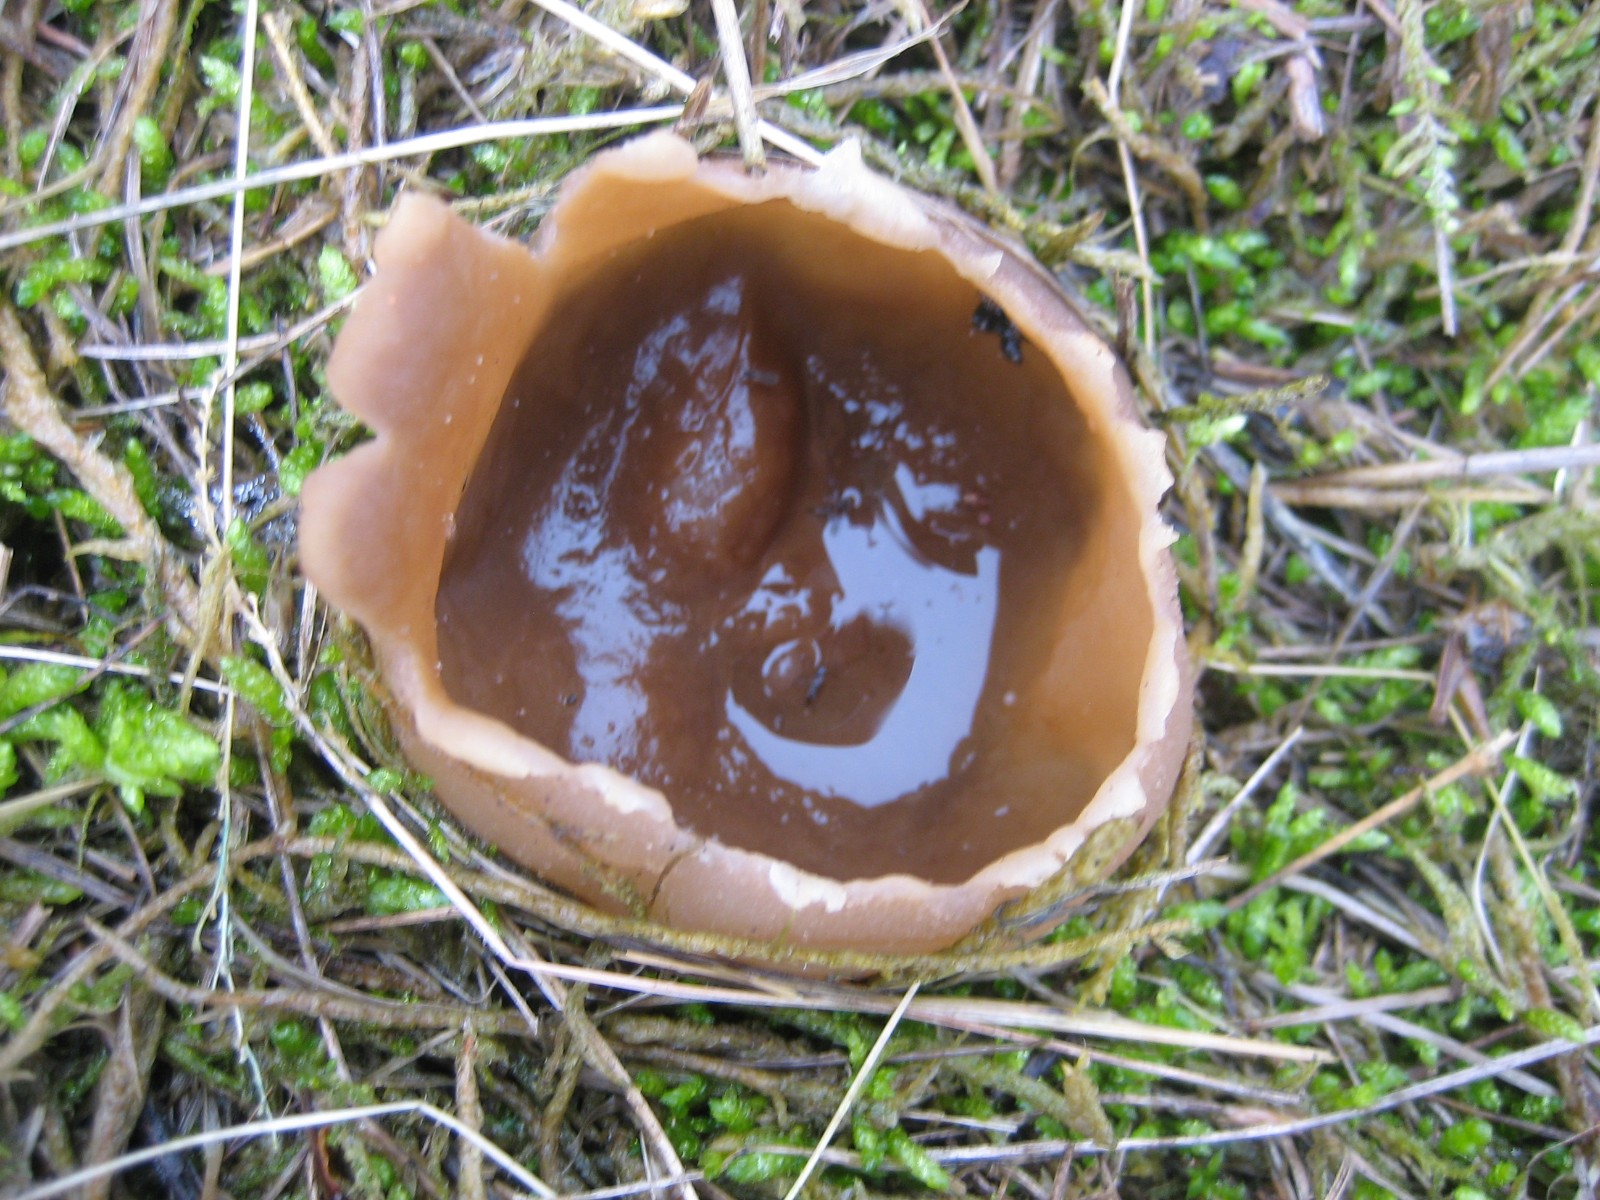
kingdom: Fungi
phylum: Ascomycota
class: Pezizomycetes
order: Pezizales
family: Pezizaceae
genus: Peziza
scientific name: Peziza vesiculosa
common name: blære-bægersvamp
